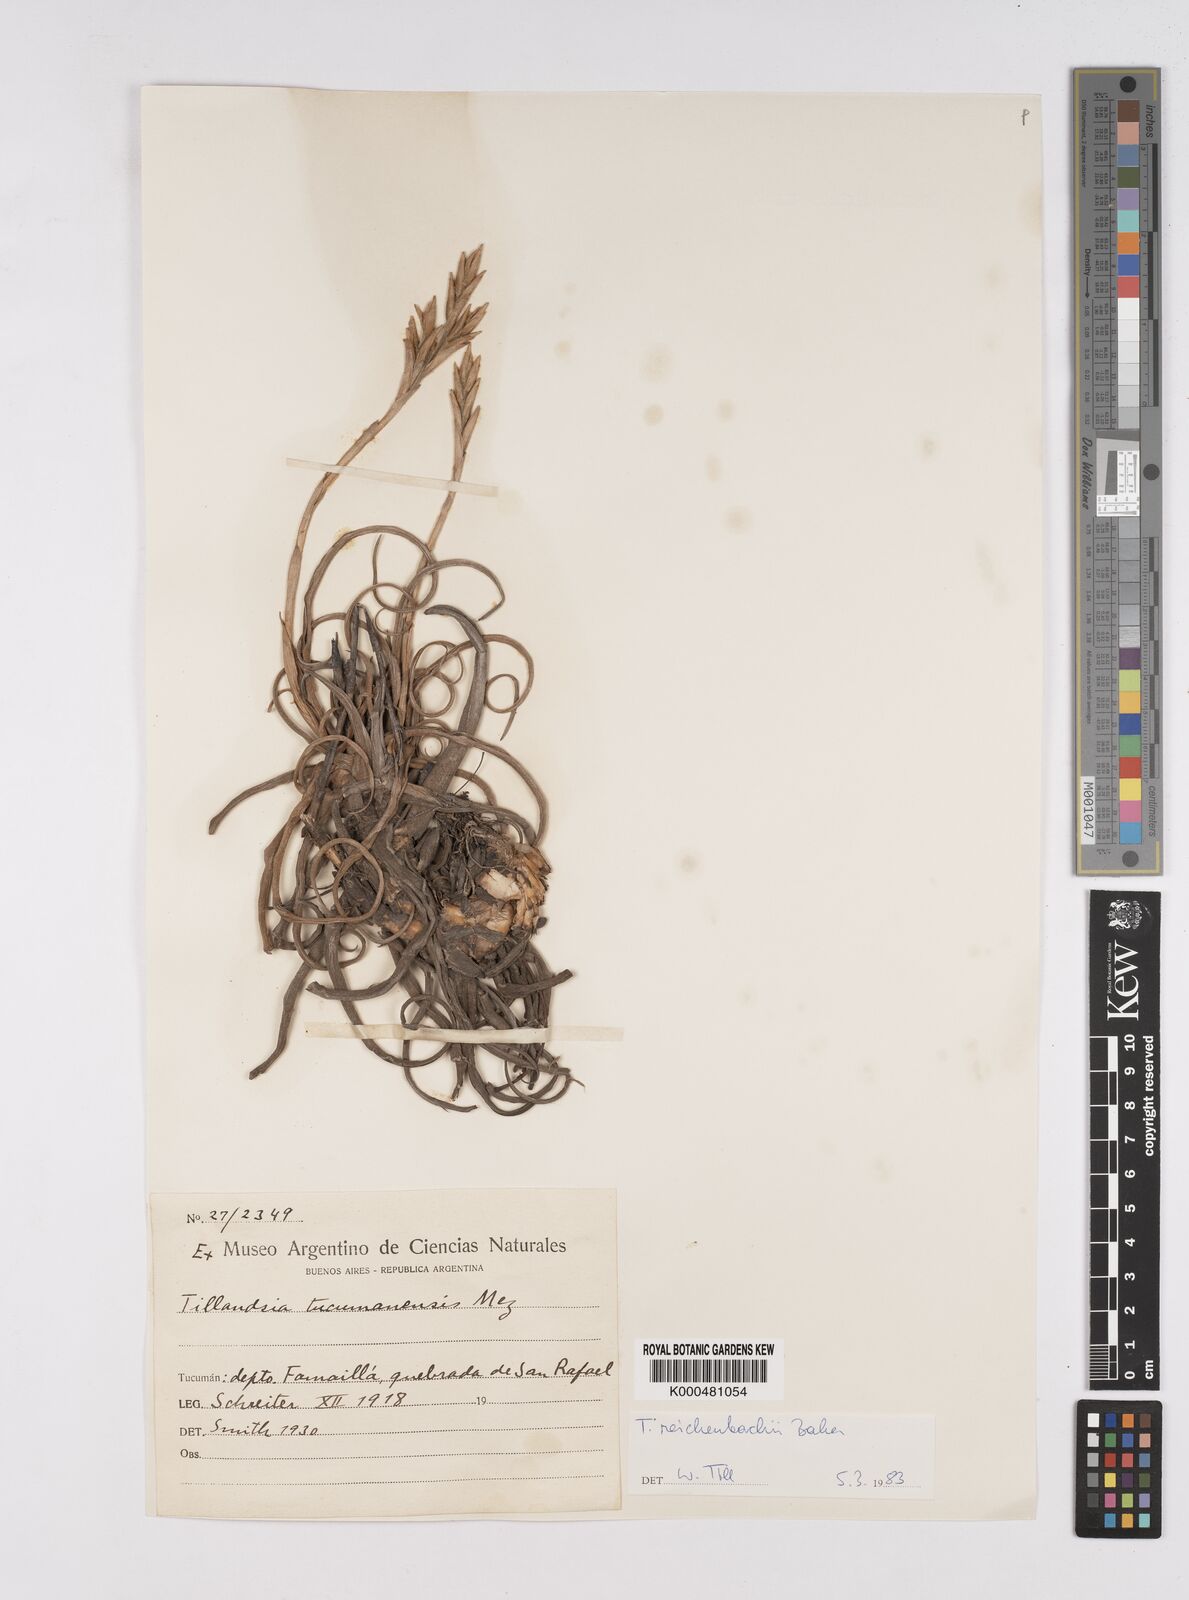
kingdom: Plantae
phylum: Tracheophyta
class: Liliopsida
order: Poales
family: Bromeliaceae
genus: Tillandsia
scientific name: Tillandsia reichenbachii
